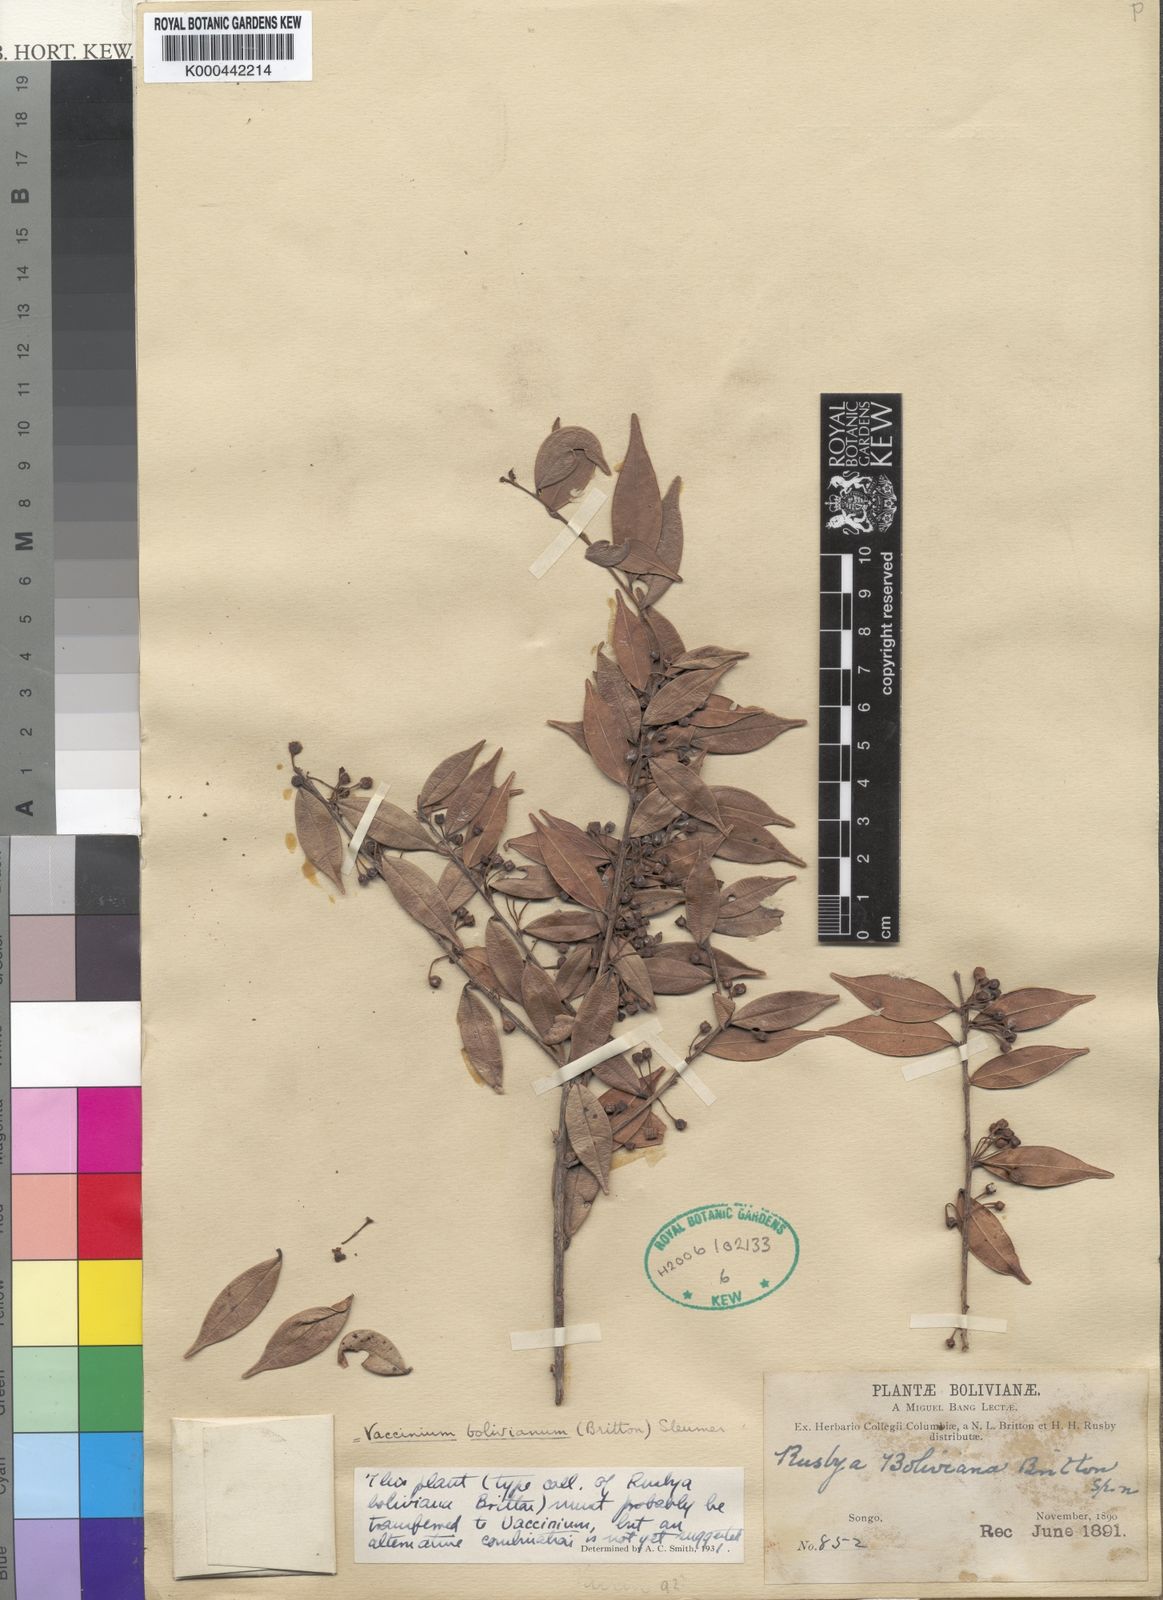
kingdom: Plantae
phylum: Tracheophyta
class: Magnoliopsida
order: Ericales
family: Ericaceae
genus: Diogenesia
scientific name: Diogenesia boliviana
